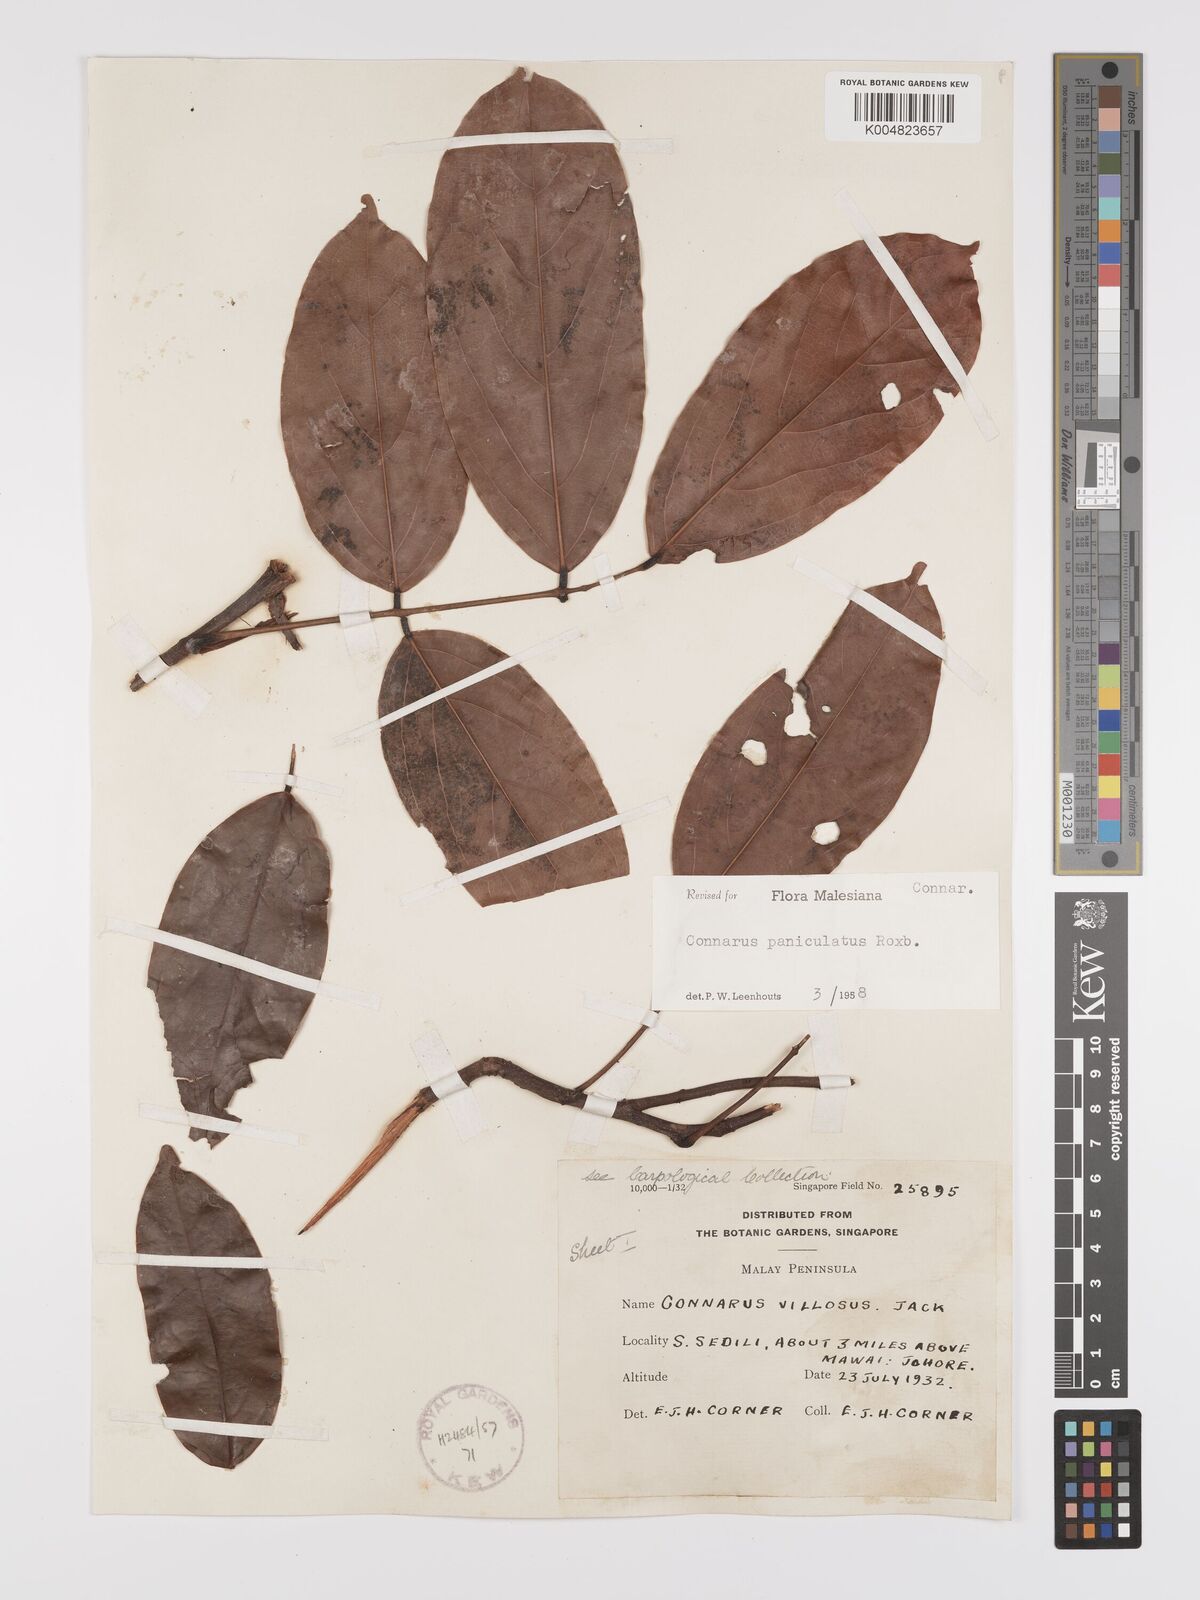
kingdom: Plantae
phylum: Tracheophyta
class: Magnoliopsida
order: Oxalidales
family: Connaraceae
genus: Connarus
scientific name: Connarus paniculatus
